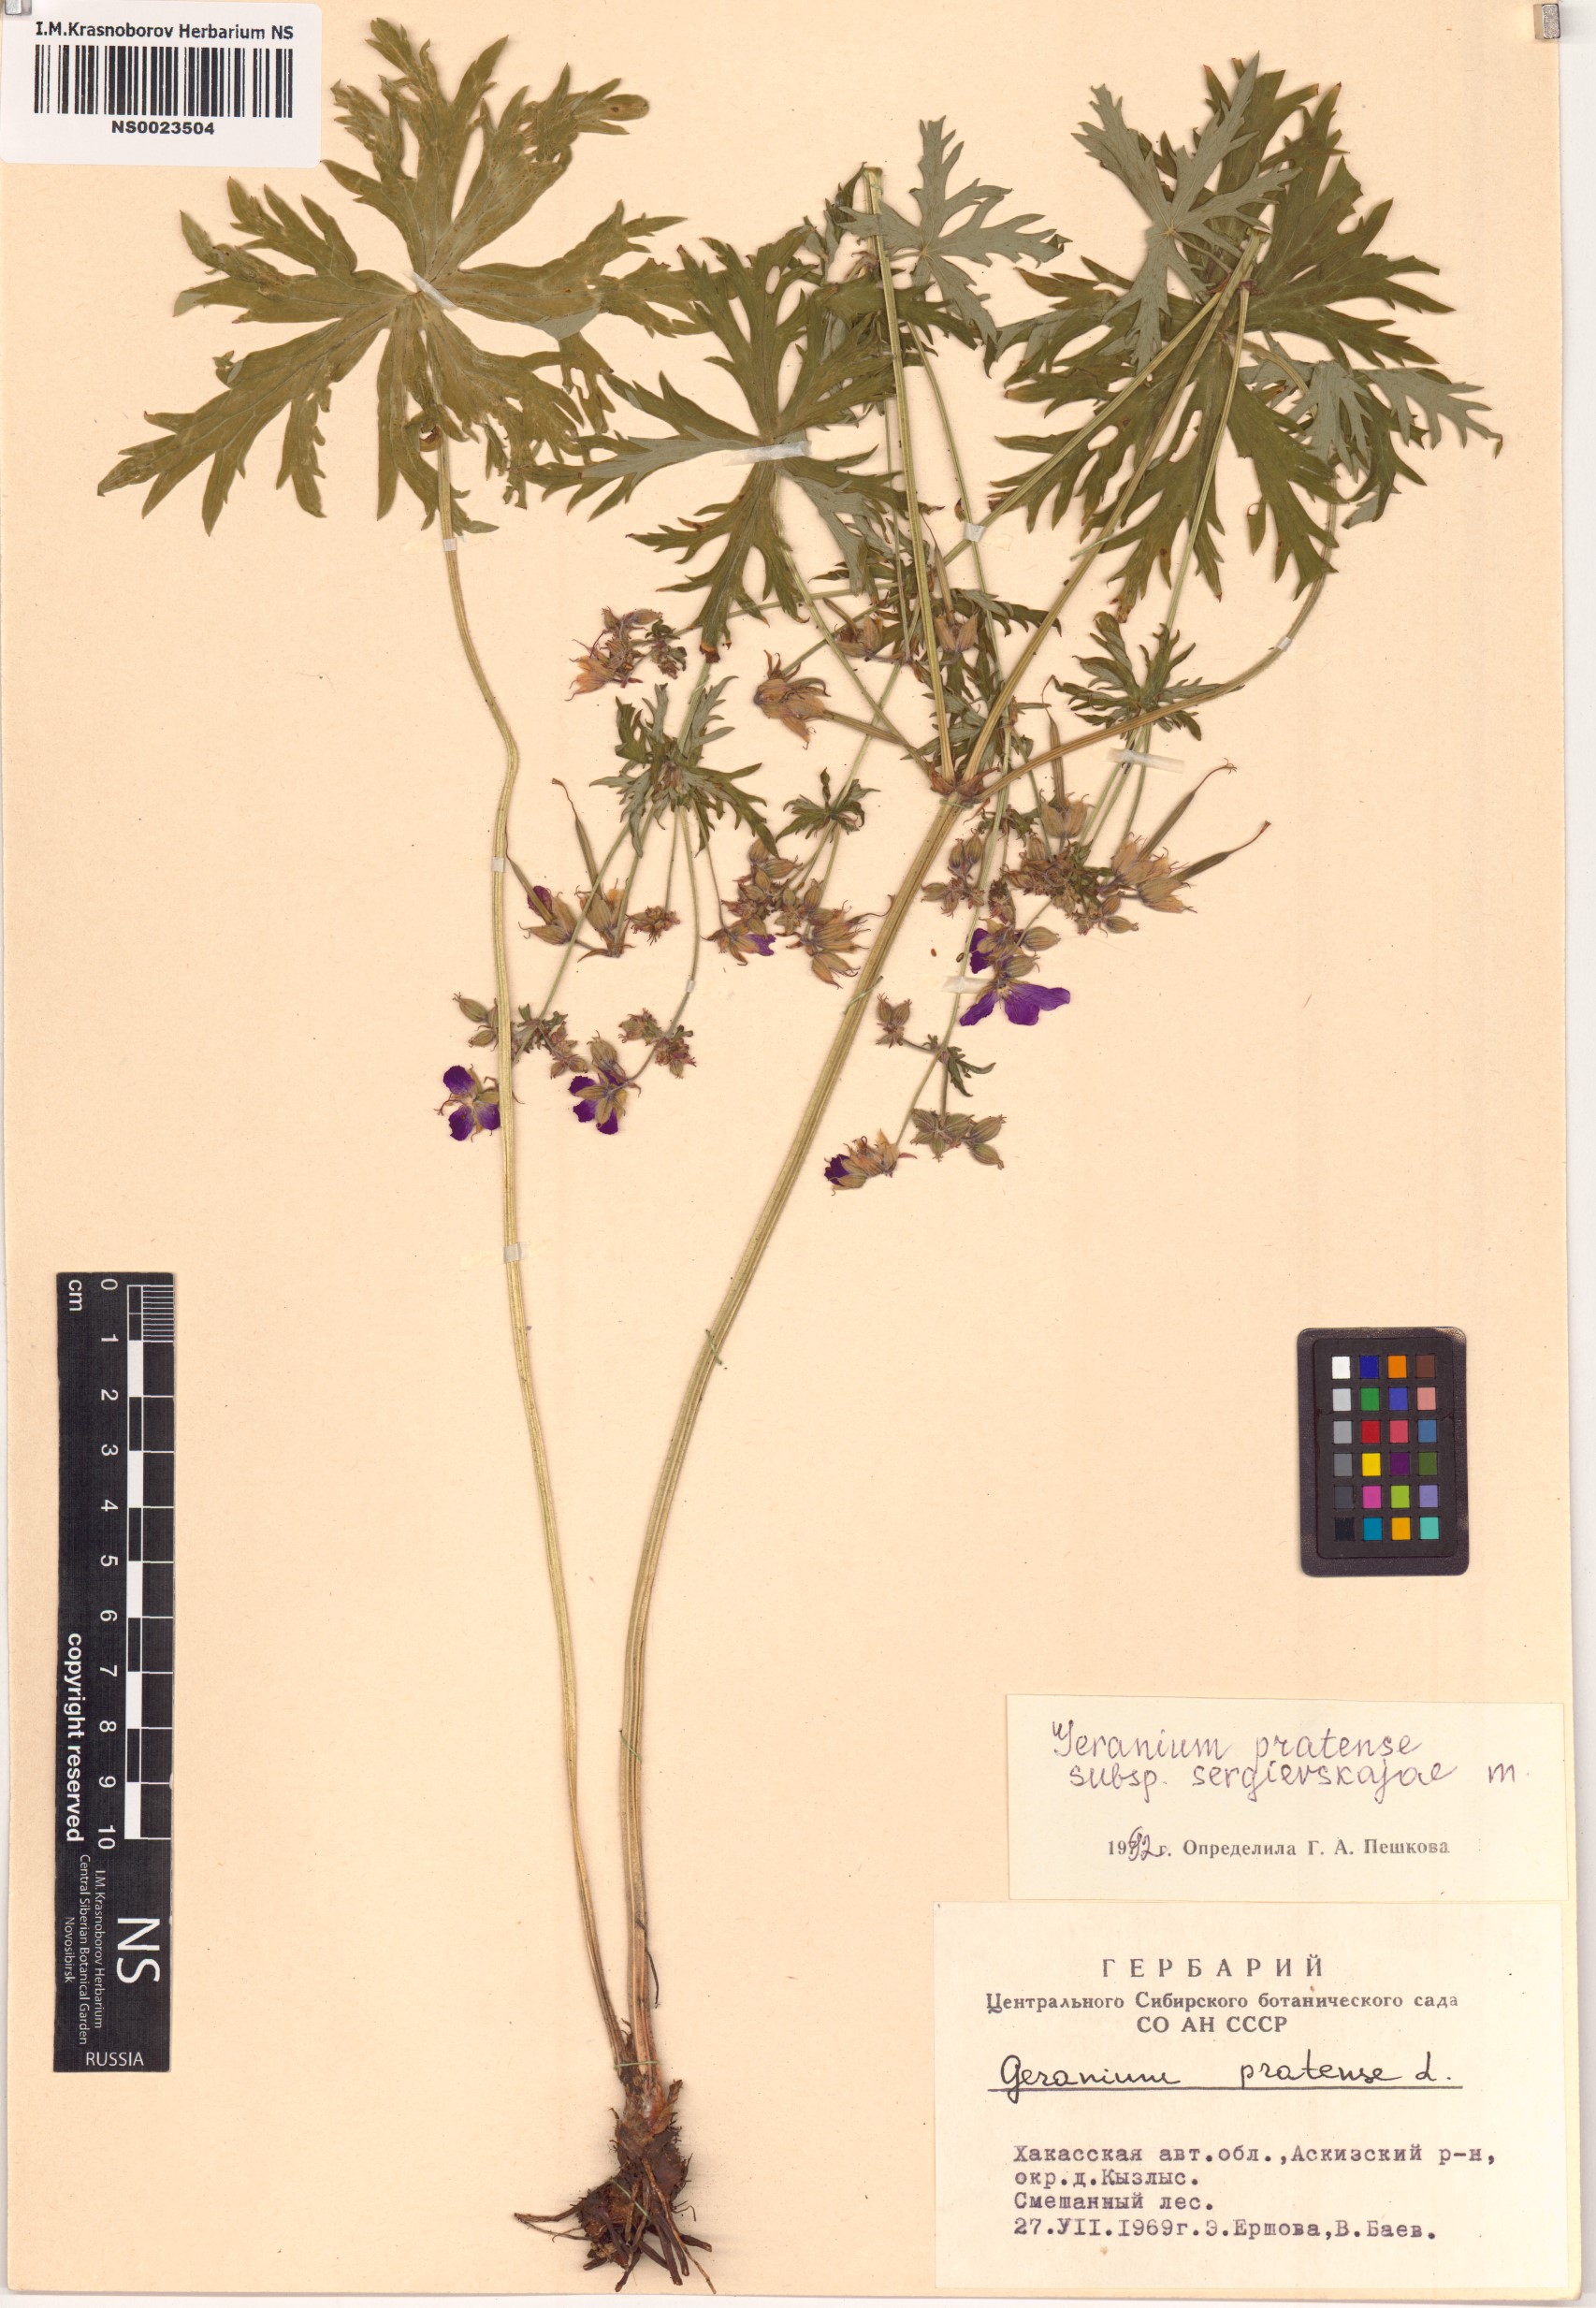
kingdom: Plantae
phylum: Tracheophyta
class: Magnoliopsida
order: Geraniales
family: Geraniaceae
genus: Geranium
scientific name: Geranium pratense
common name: Meadow crane's-bill
